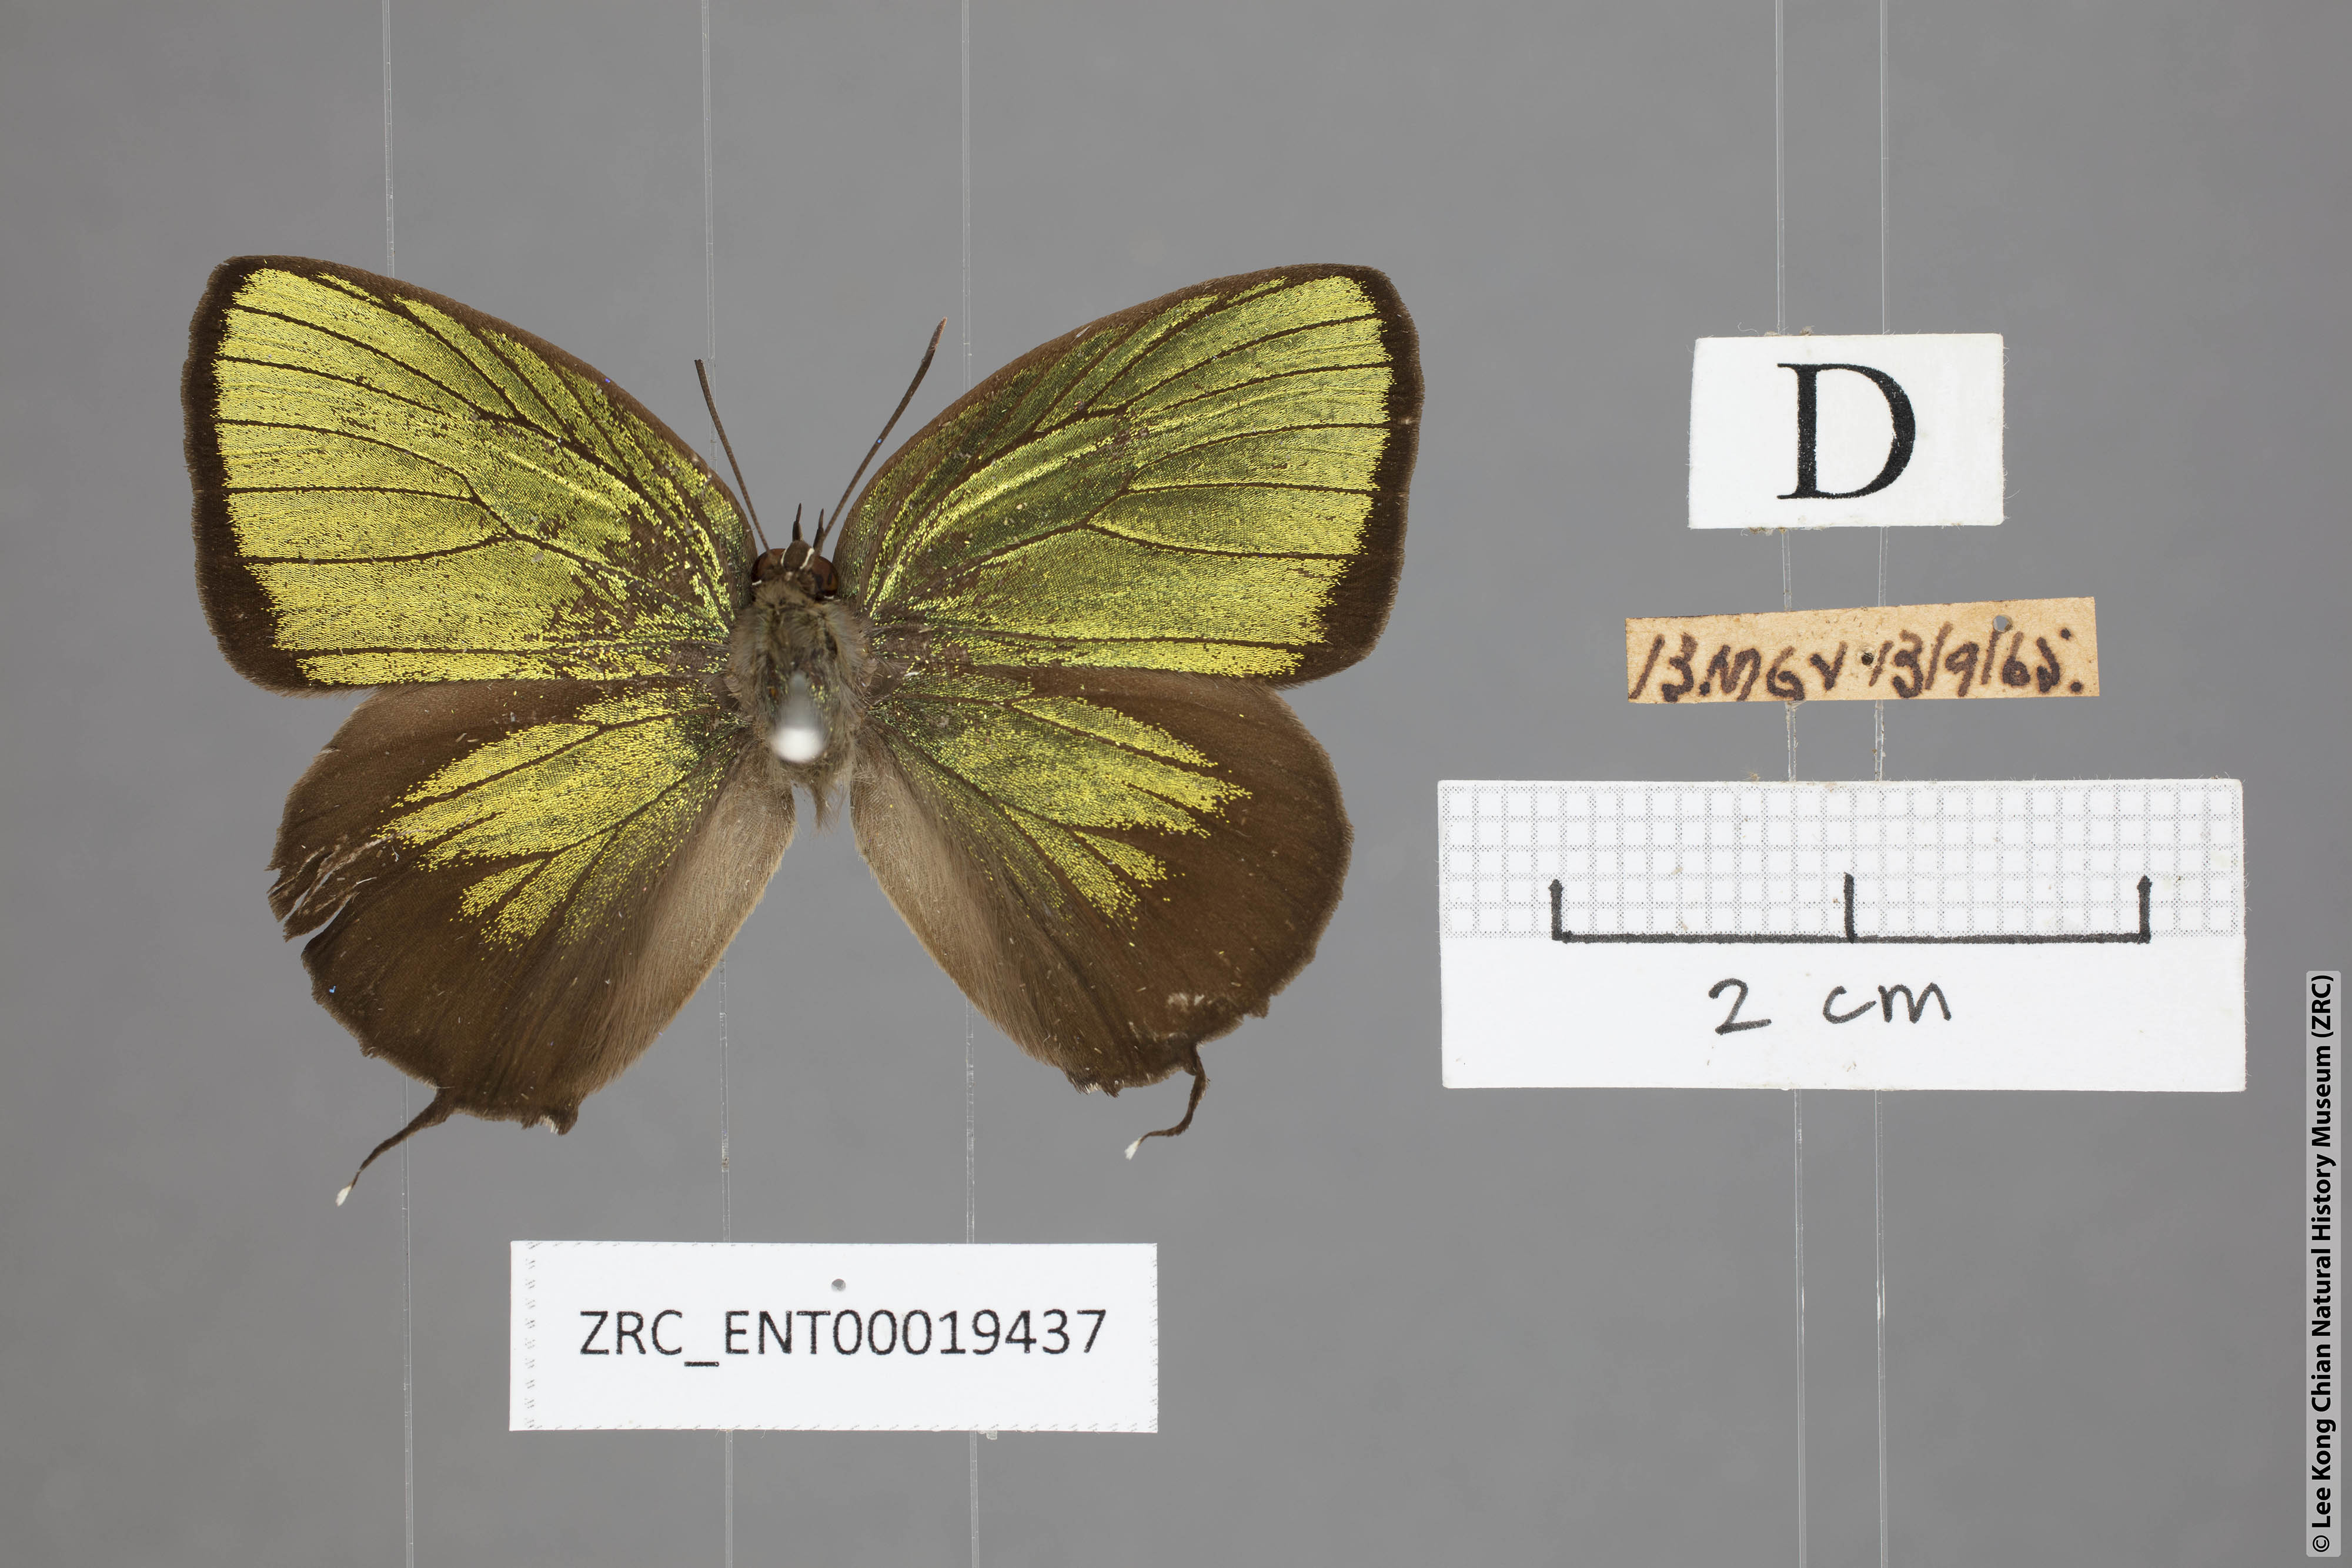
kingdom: Animalia
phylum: Arthropoda
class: Insecta
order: Lepidoptera
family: Lycaenidae
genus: Arhopala
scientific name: Arhopala eumolphus
